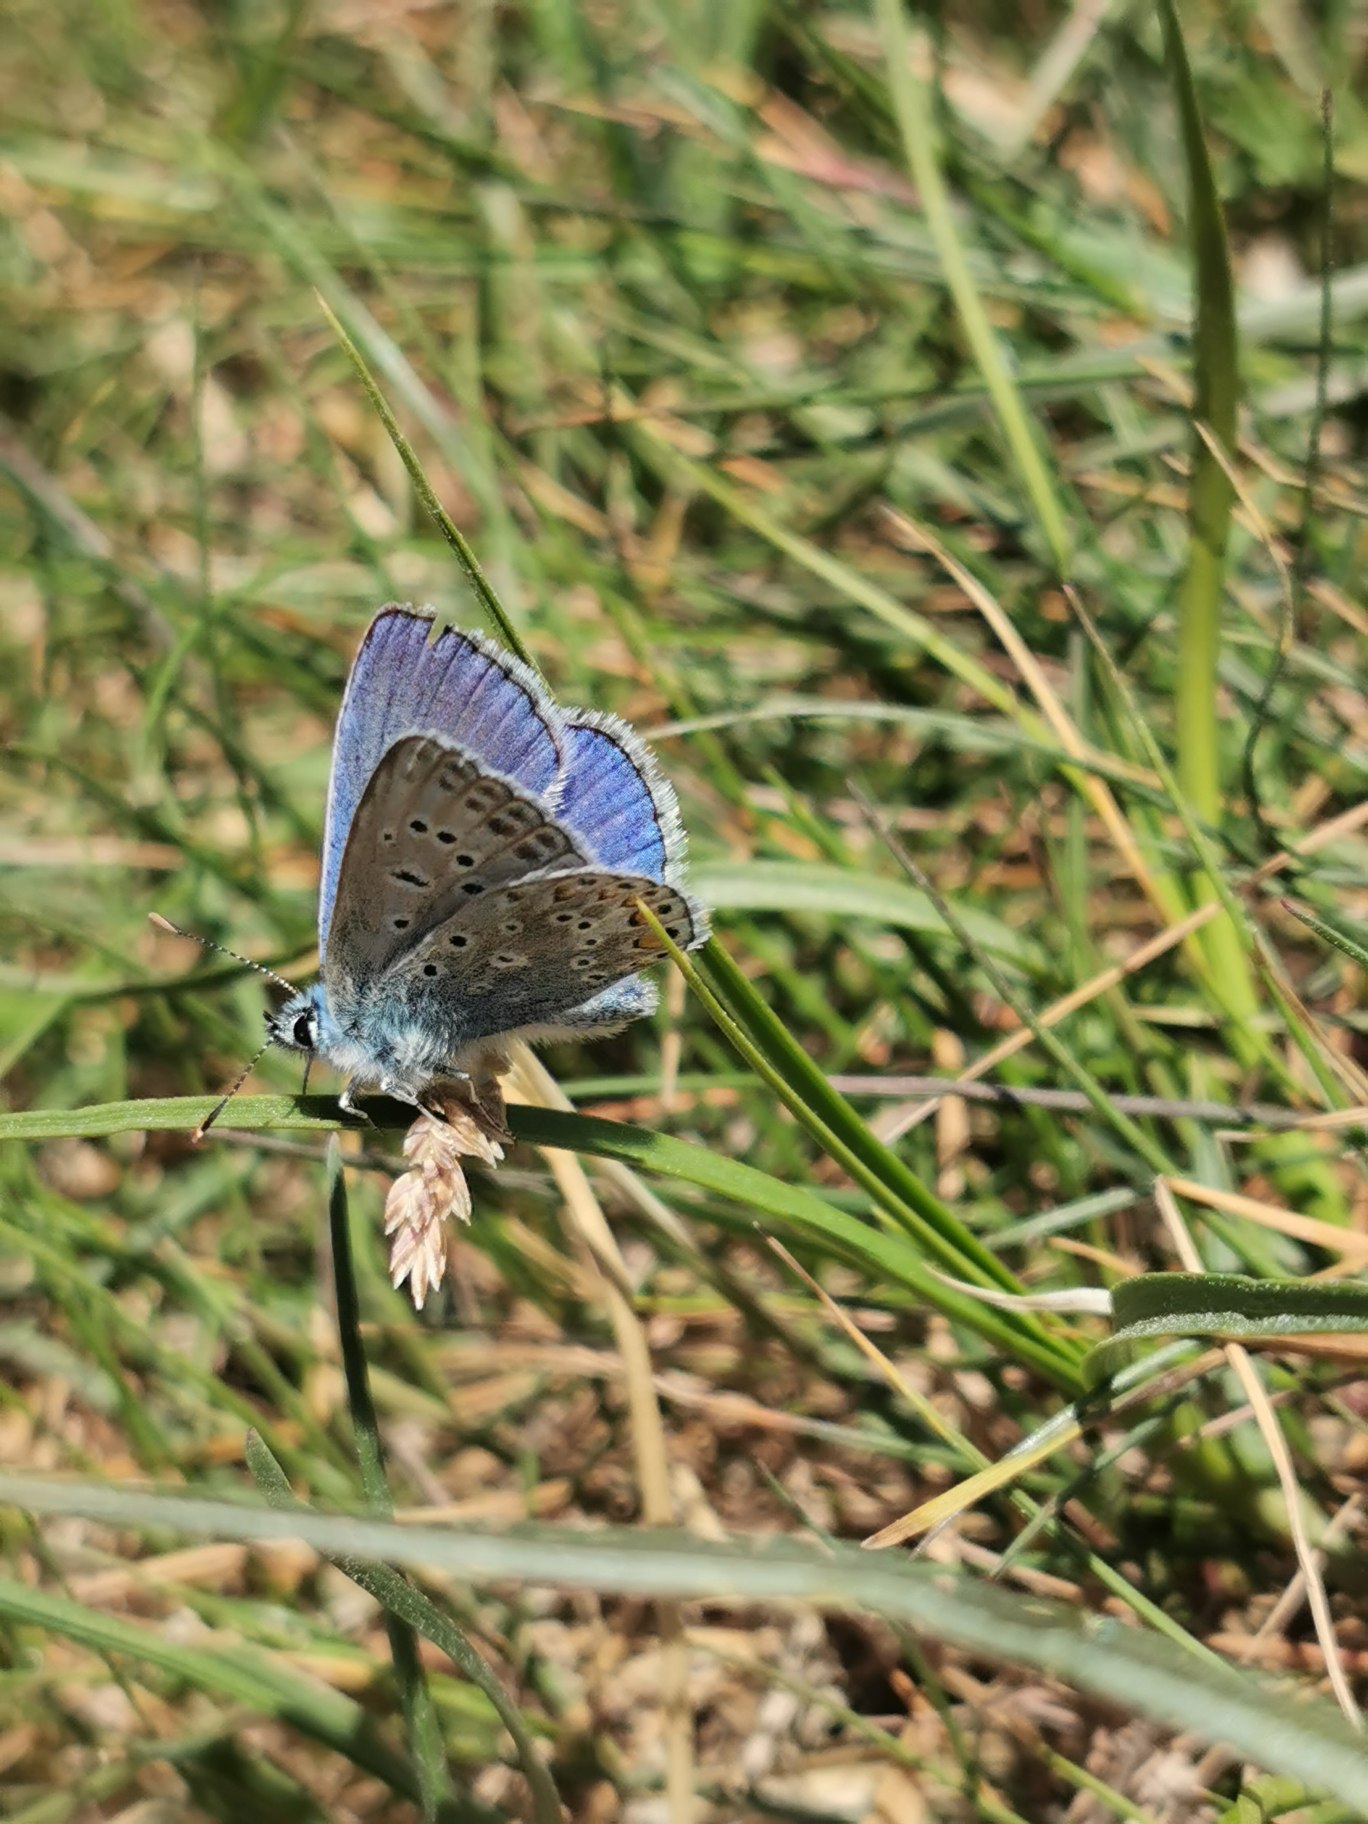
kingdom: Animalia
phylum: Arthropoda
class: Insecta
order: Lepidoptera
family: Lycaenidae
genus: Polyommatus
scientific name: Polyommatus icarus
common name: Almindelig blåfugl
